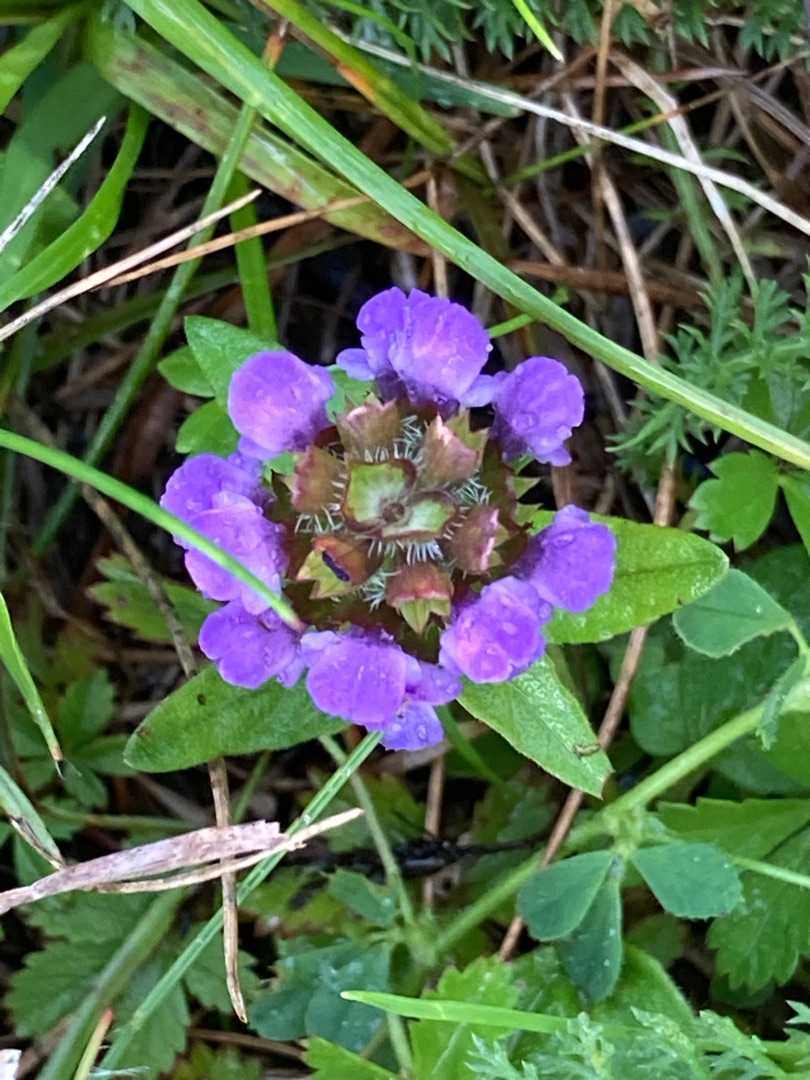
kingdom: Plantae
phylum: Tracheophyta
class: Magnoliopsida
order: Lamiales
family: Lamiaceae
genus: Prunella
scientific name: Prunella vulgaris
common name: Almindelig brunelle
